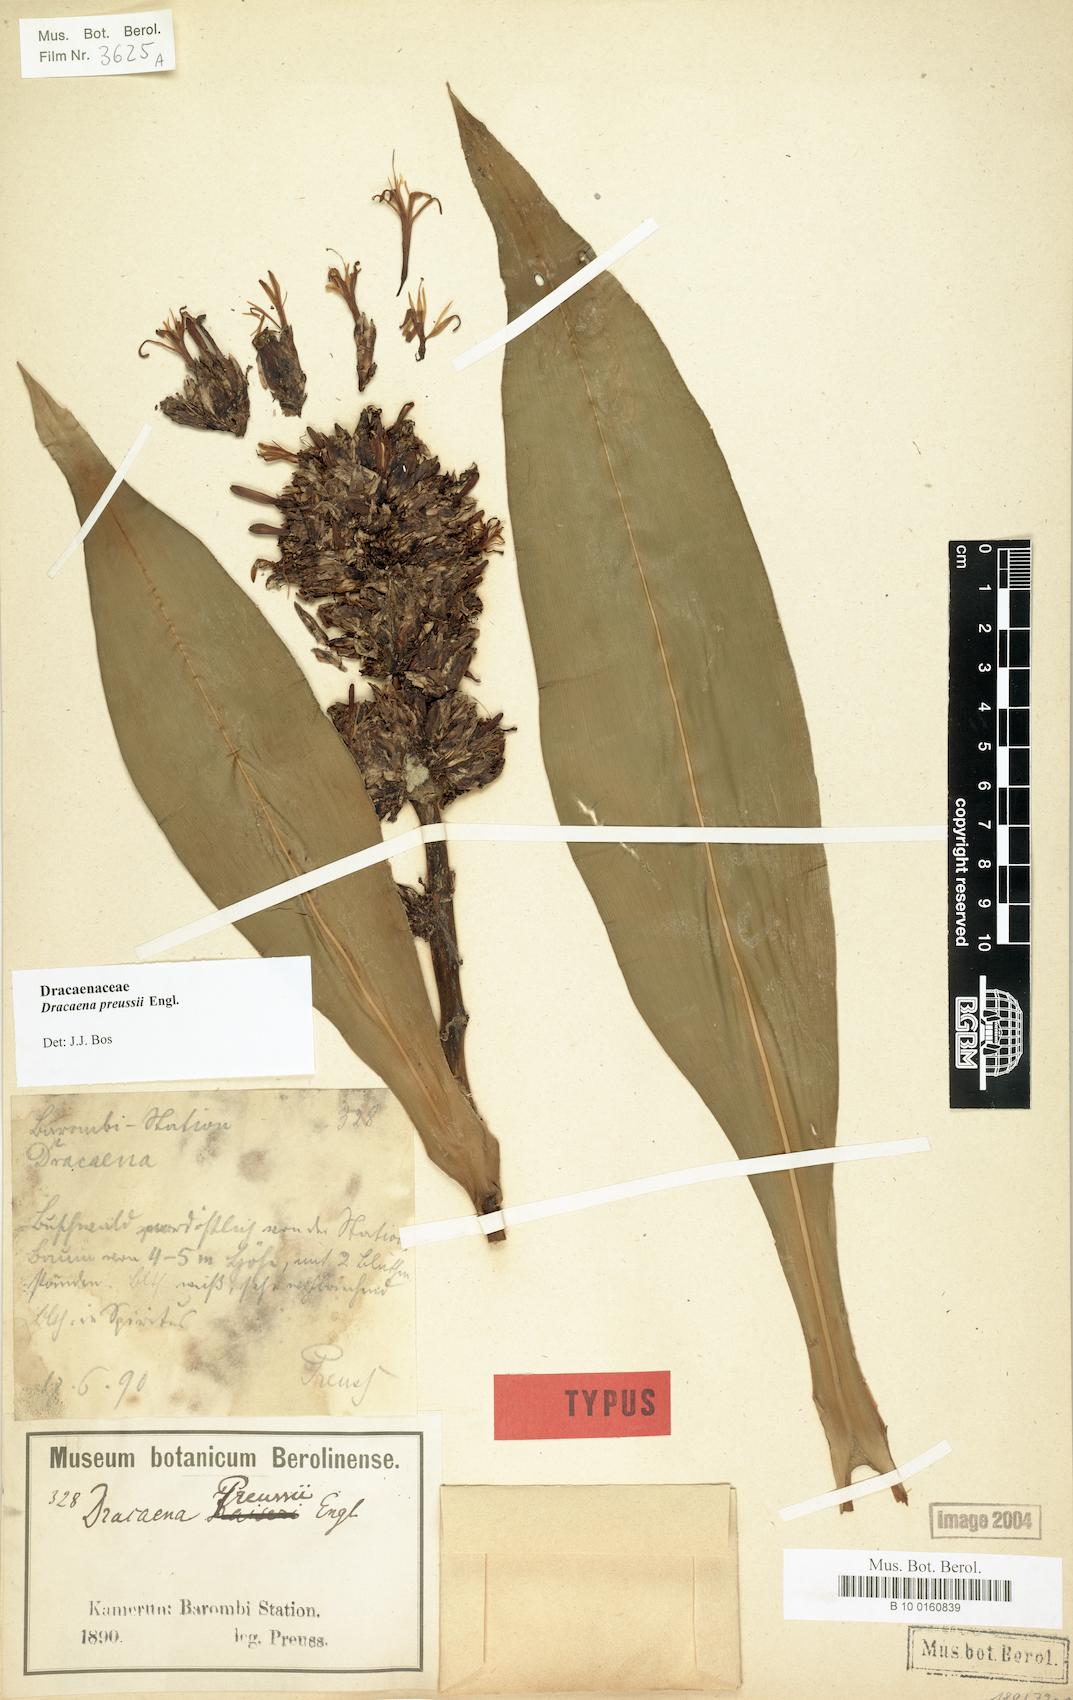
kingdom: Plantae
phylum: Tracheophyta
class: Liliopsida
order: Asparagales
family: Asparagaceae
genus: Dracaena
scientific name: Dracaena bicolor
